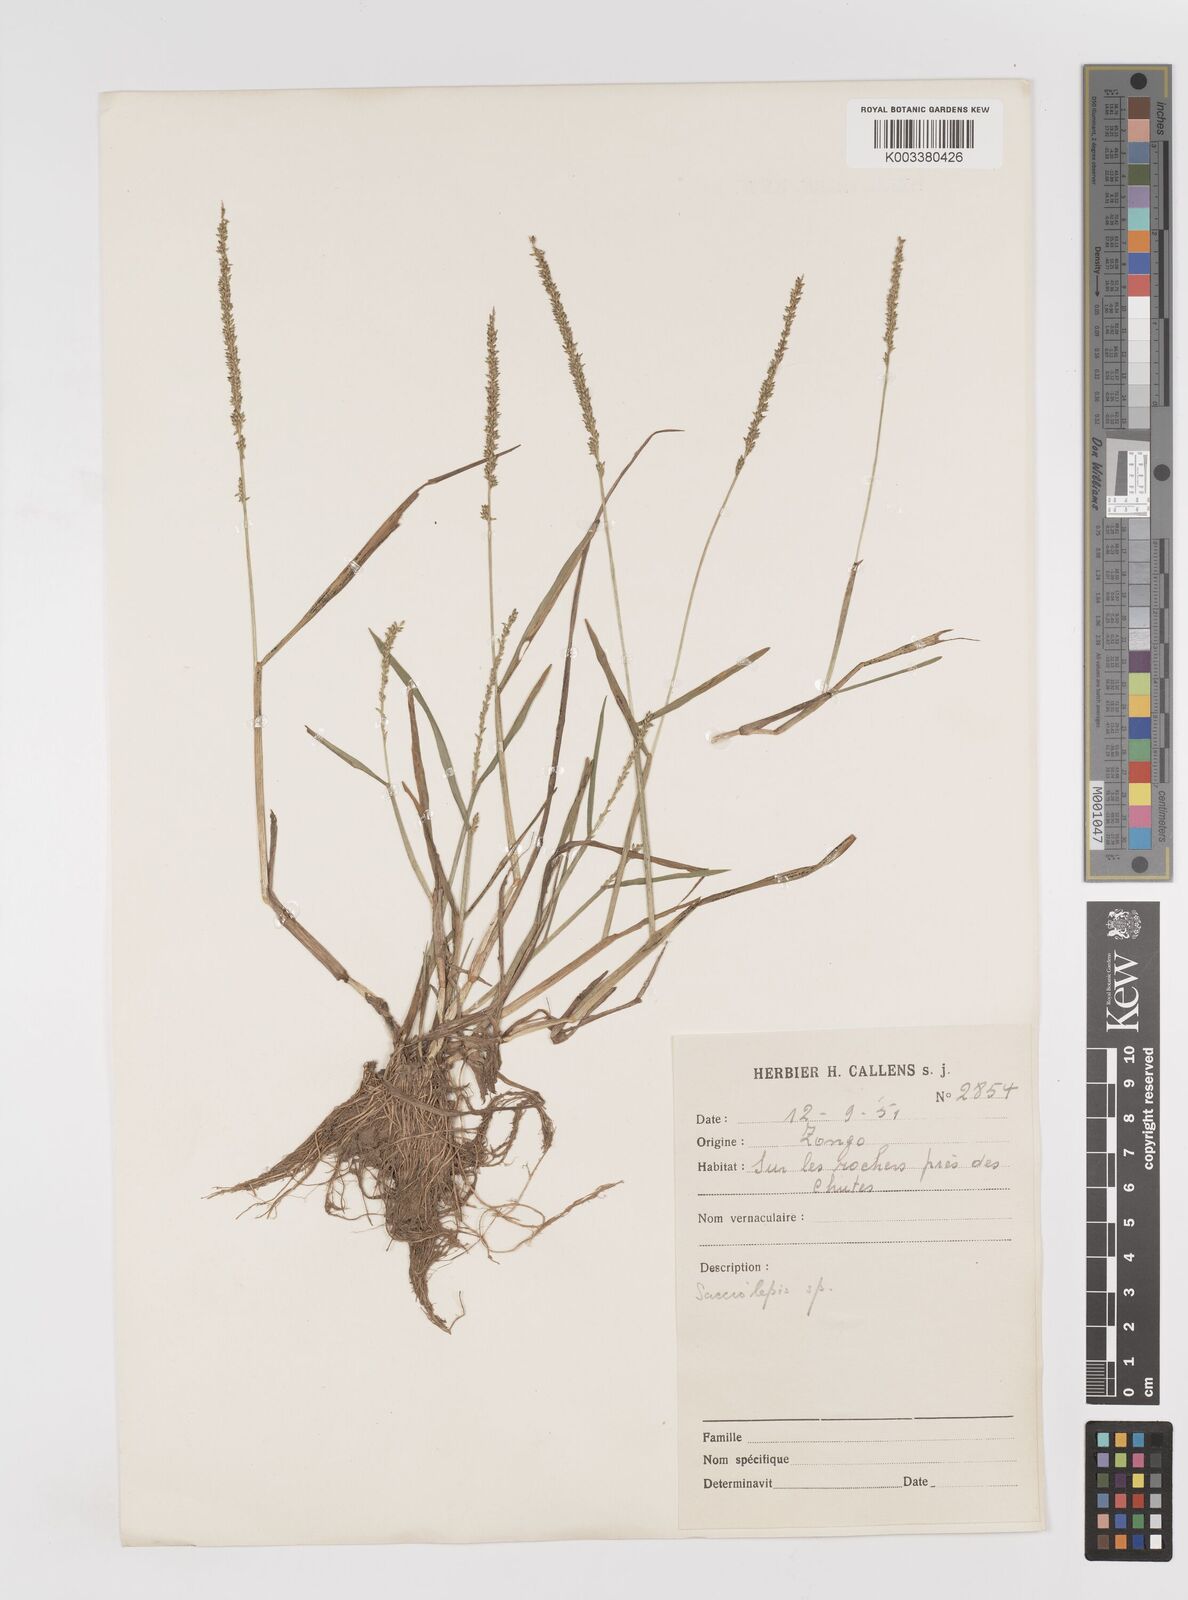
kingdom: Plantae
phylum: Tracheophyta
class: Liliopsida
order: Poales
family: Poaceae
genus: Sacciolepis
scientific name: Sacciolepis myosuroides
